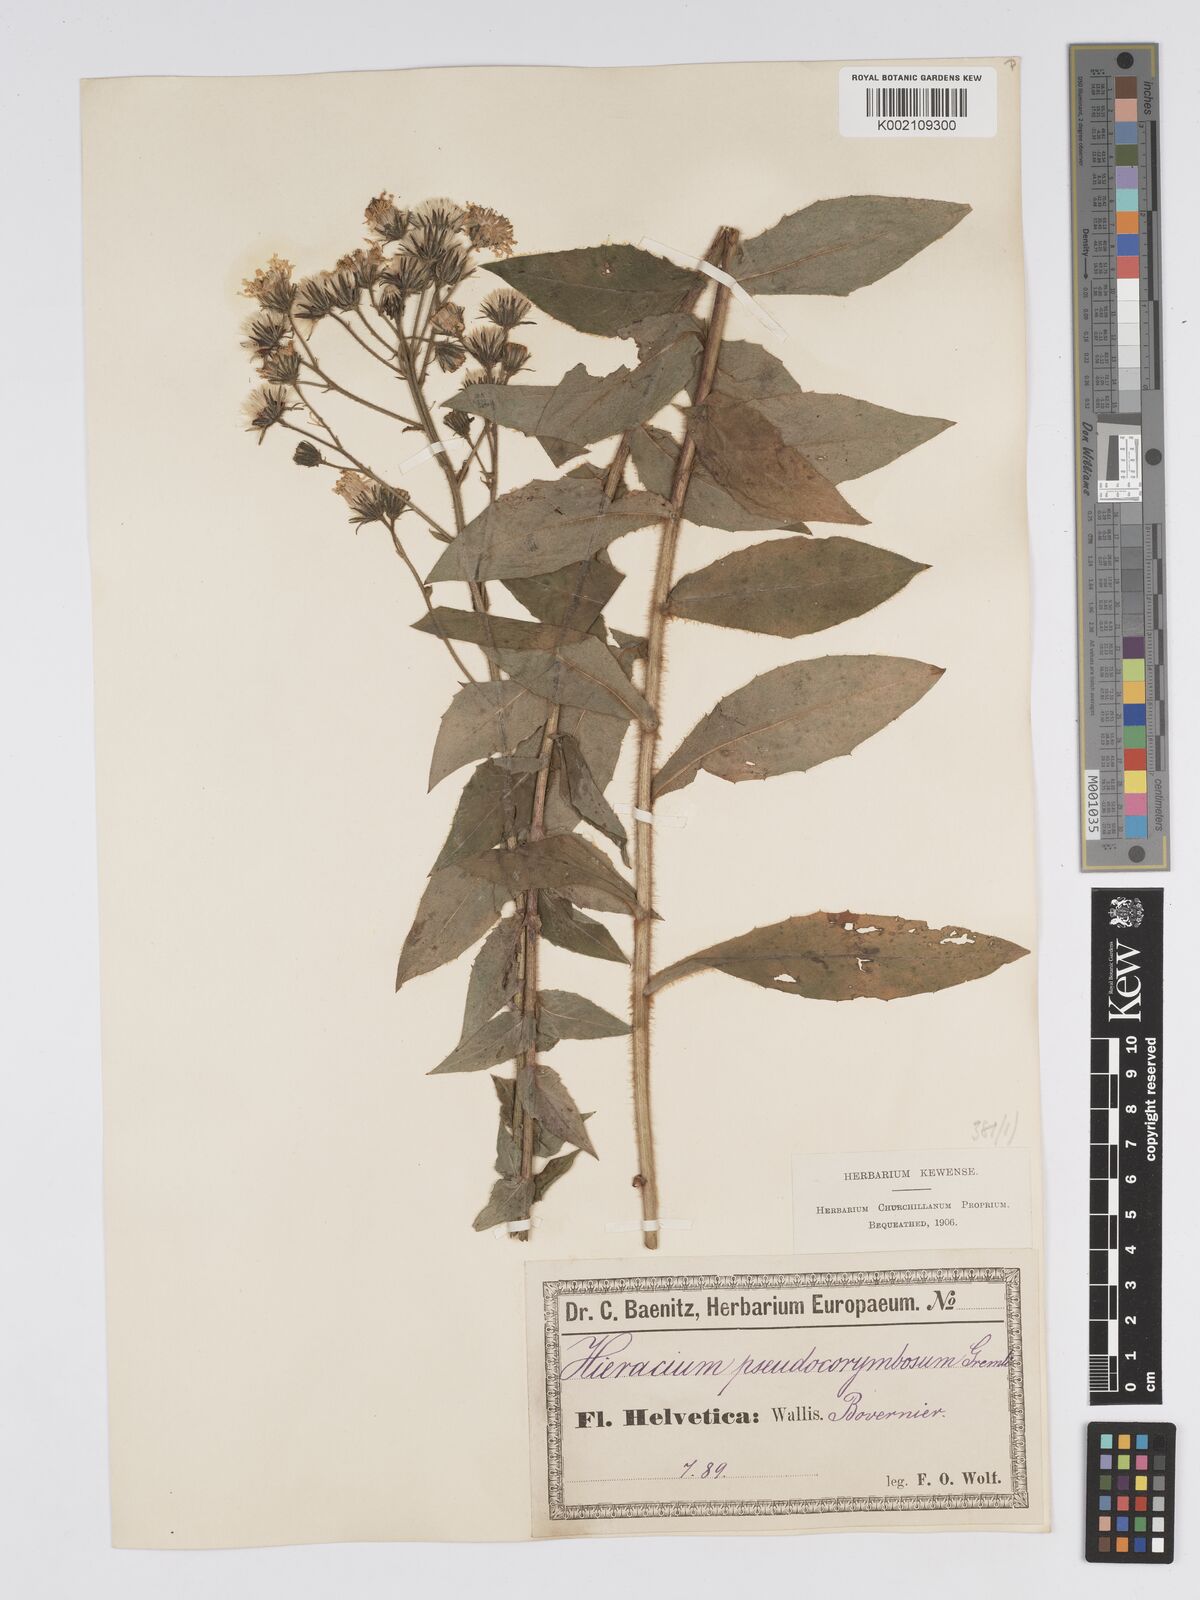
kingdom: Plantae
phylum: Tracheophyta
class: Magnoliopsida
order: Asterales
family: Asteraceae
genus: Hieracium
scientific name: Hieracium pseudocorymbosum
